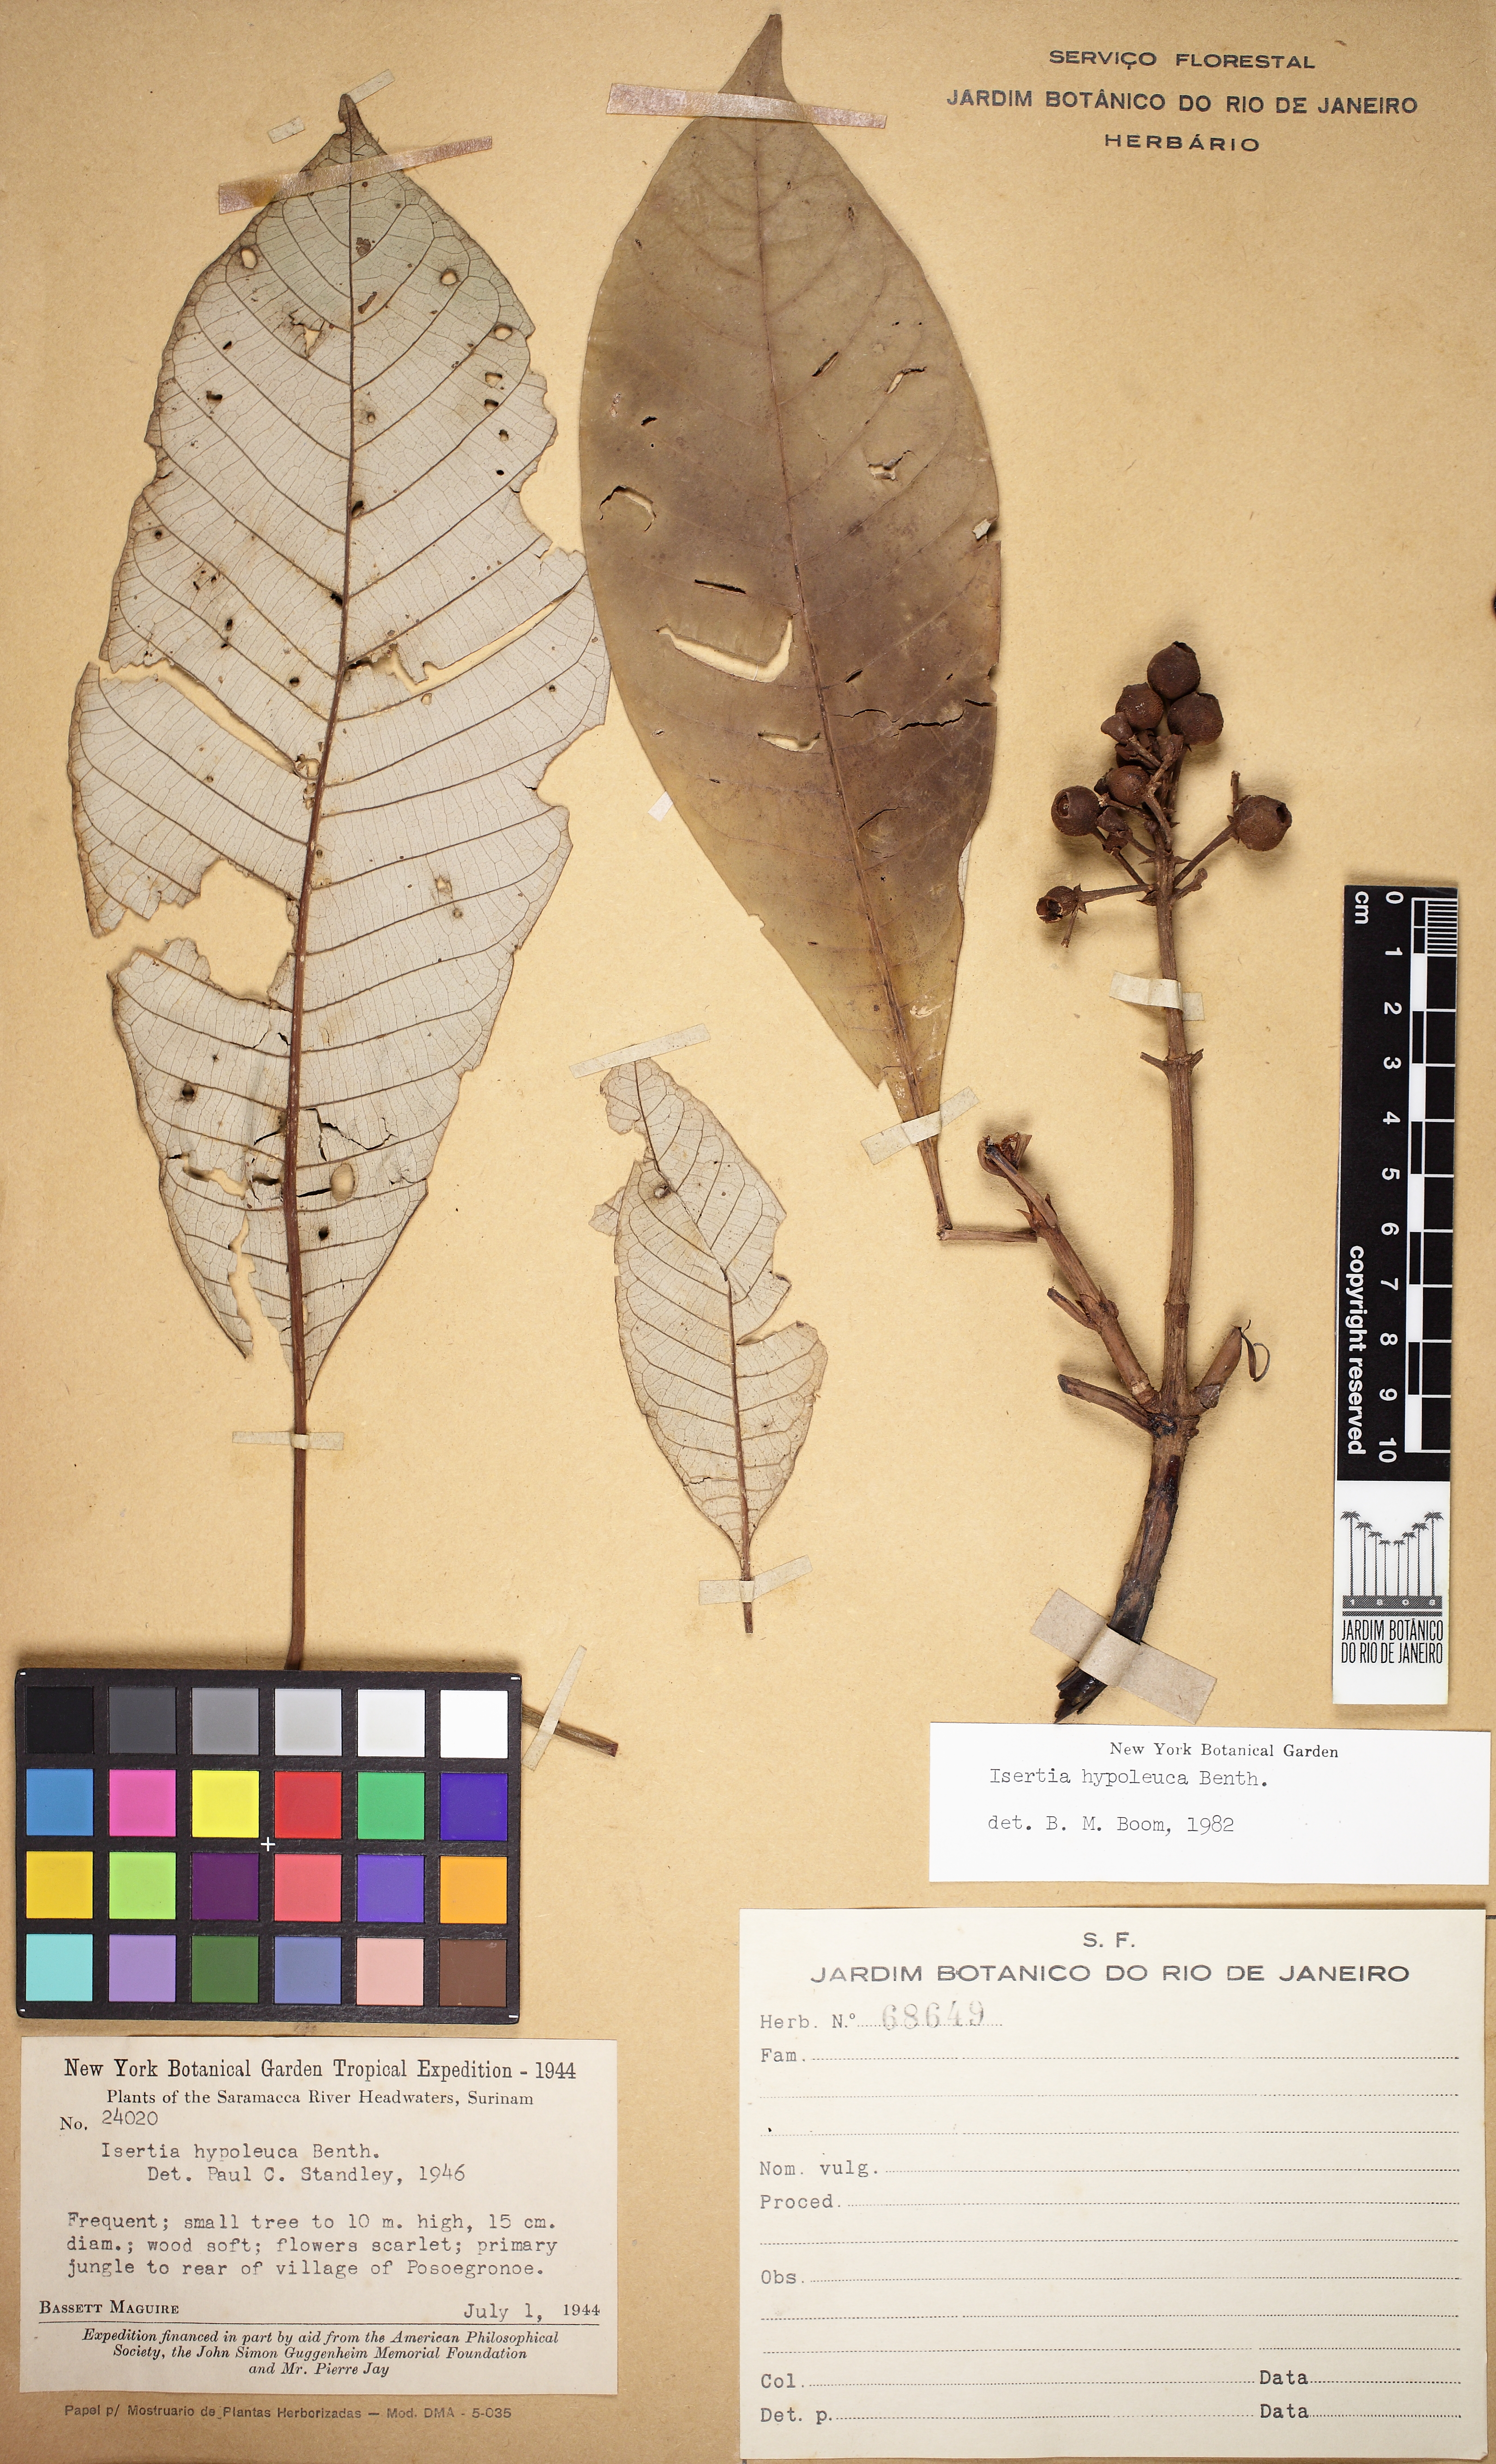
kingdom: Plantae
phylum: Tracheophyta
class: Magnoliopsida
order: Gentianales
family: Rubiaceae
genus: Isertia
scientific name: Isertia hypoleuca
